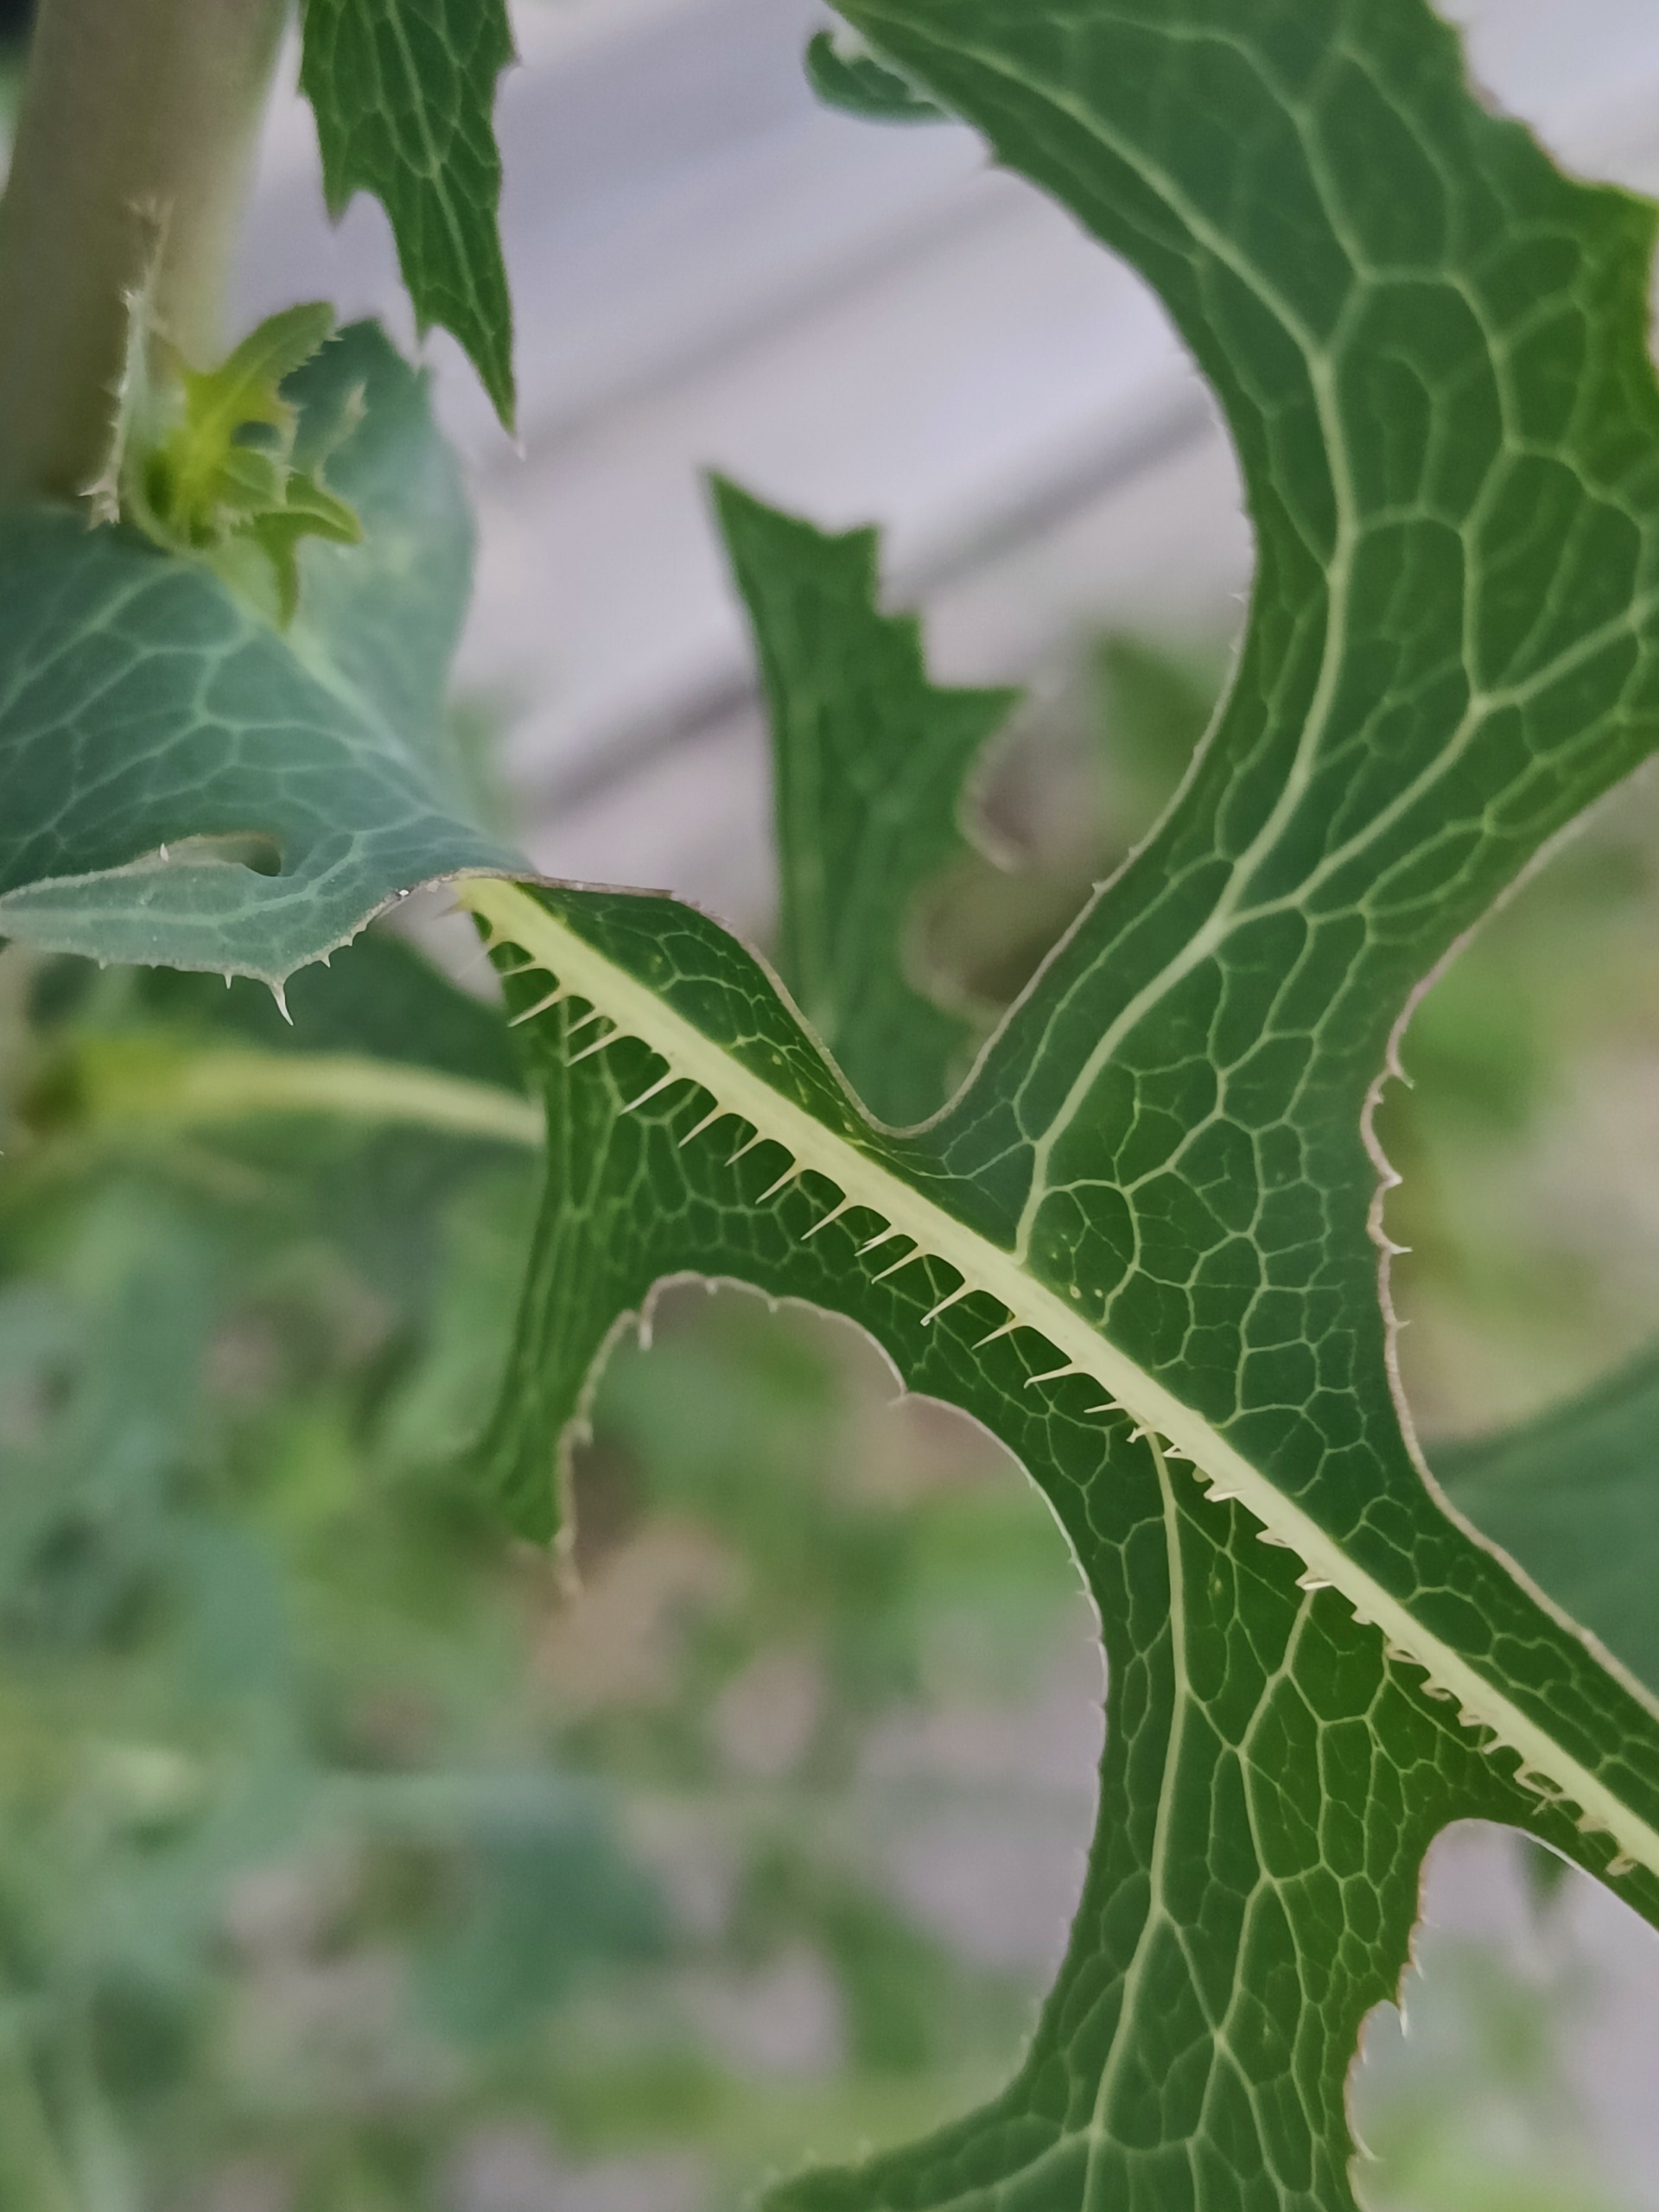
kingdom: Plantae
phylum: Tracheophyta
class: Magnoliopsida
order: Asterales
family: Asteraceae
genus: Lactuca
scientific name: Lactuca serriola
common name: Tornet salat
